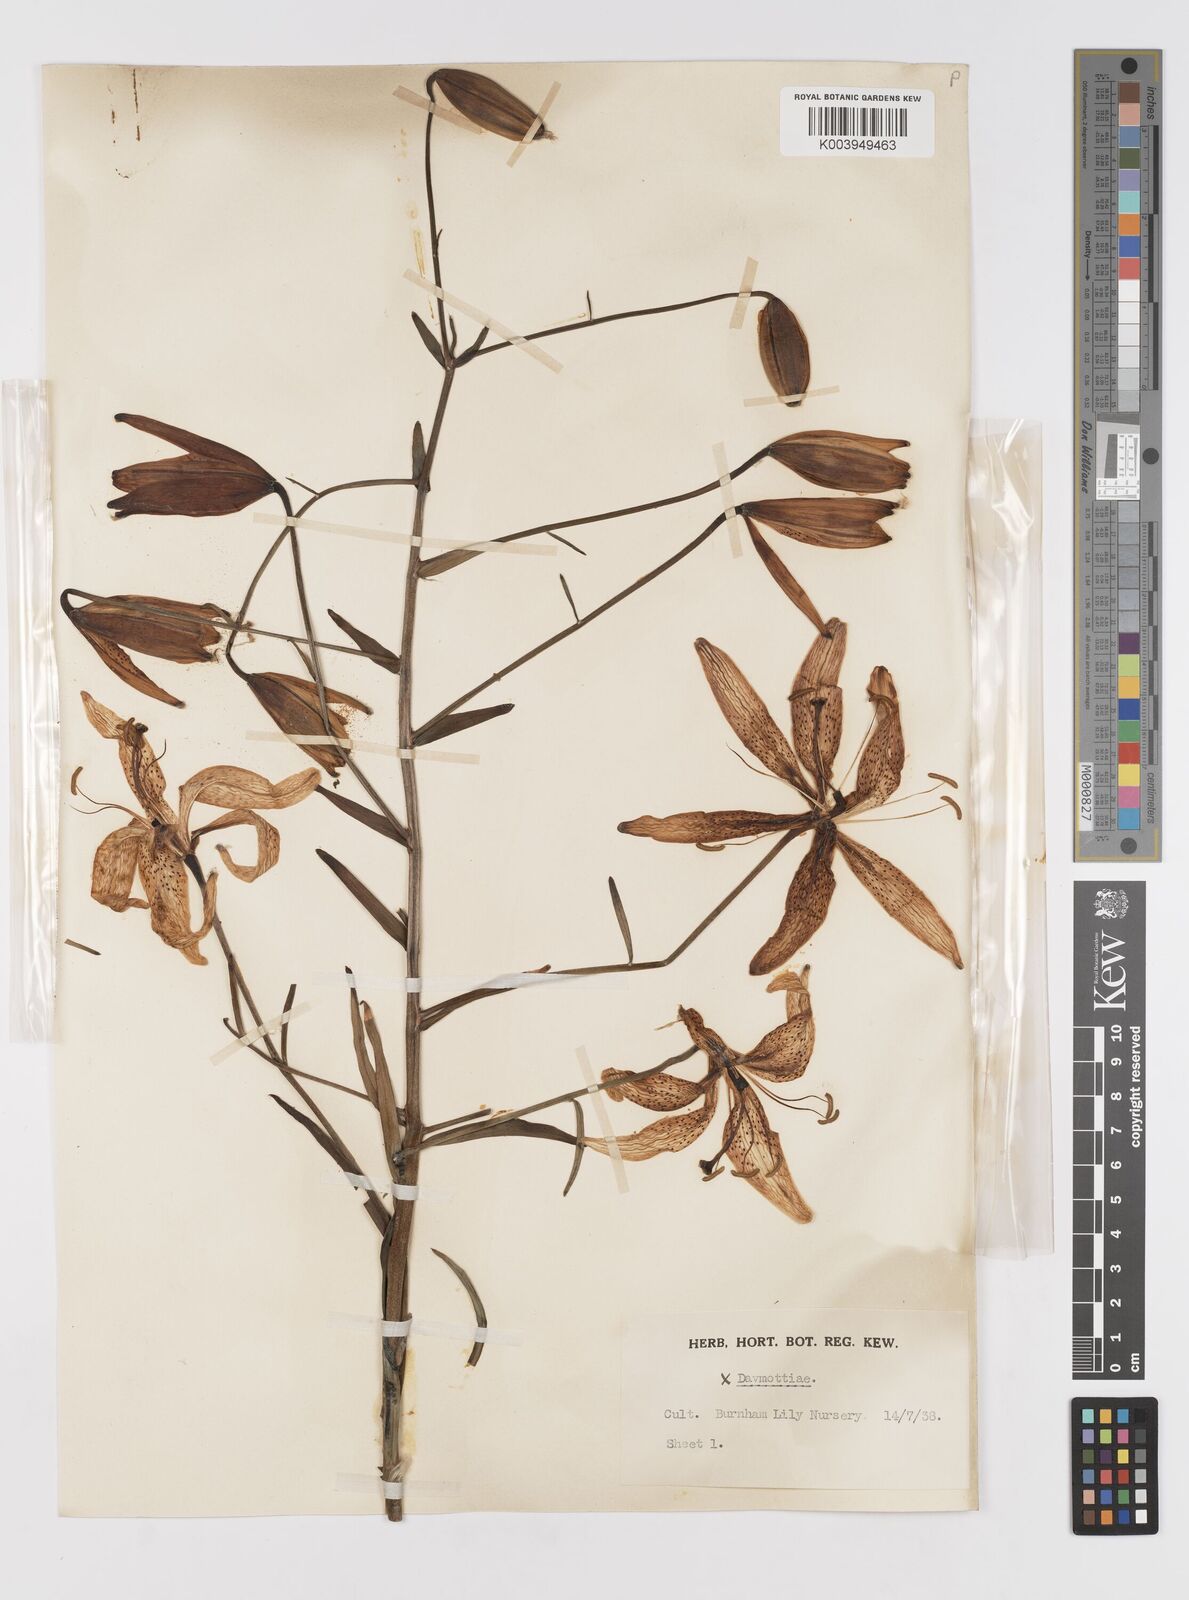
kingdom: Plantae
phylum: Tracheophyta
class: Liliopsida
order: Liliales
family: Liliaceae
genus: Lilium
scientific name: Lilium
